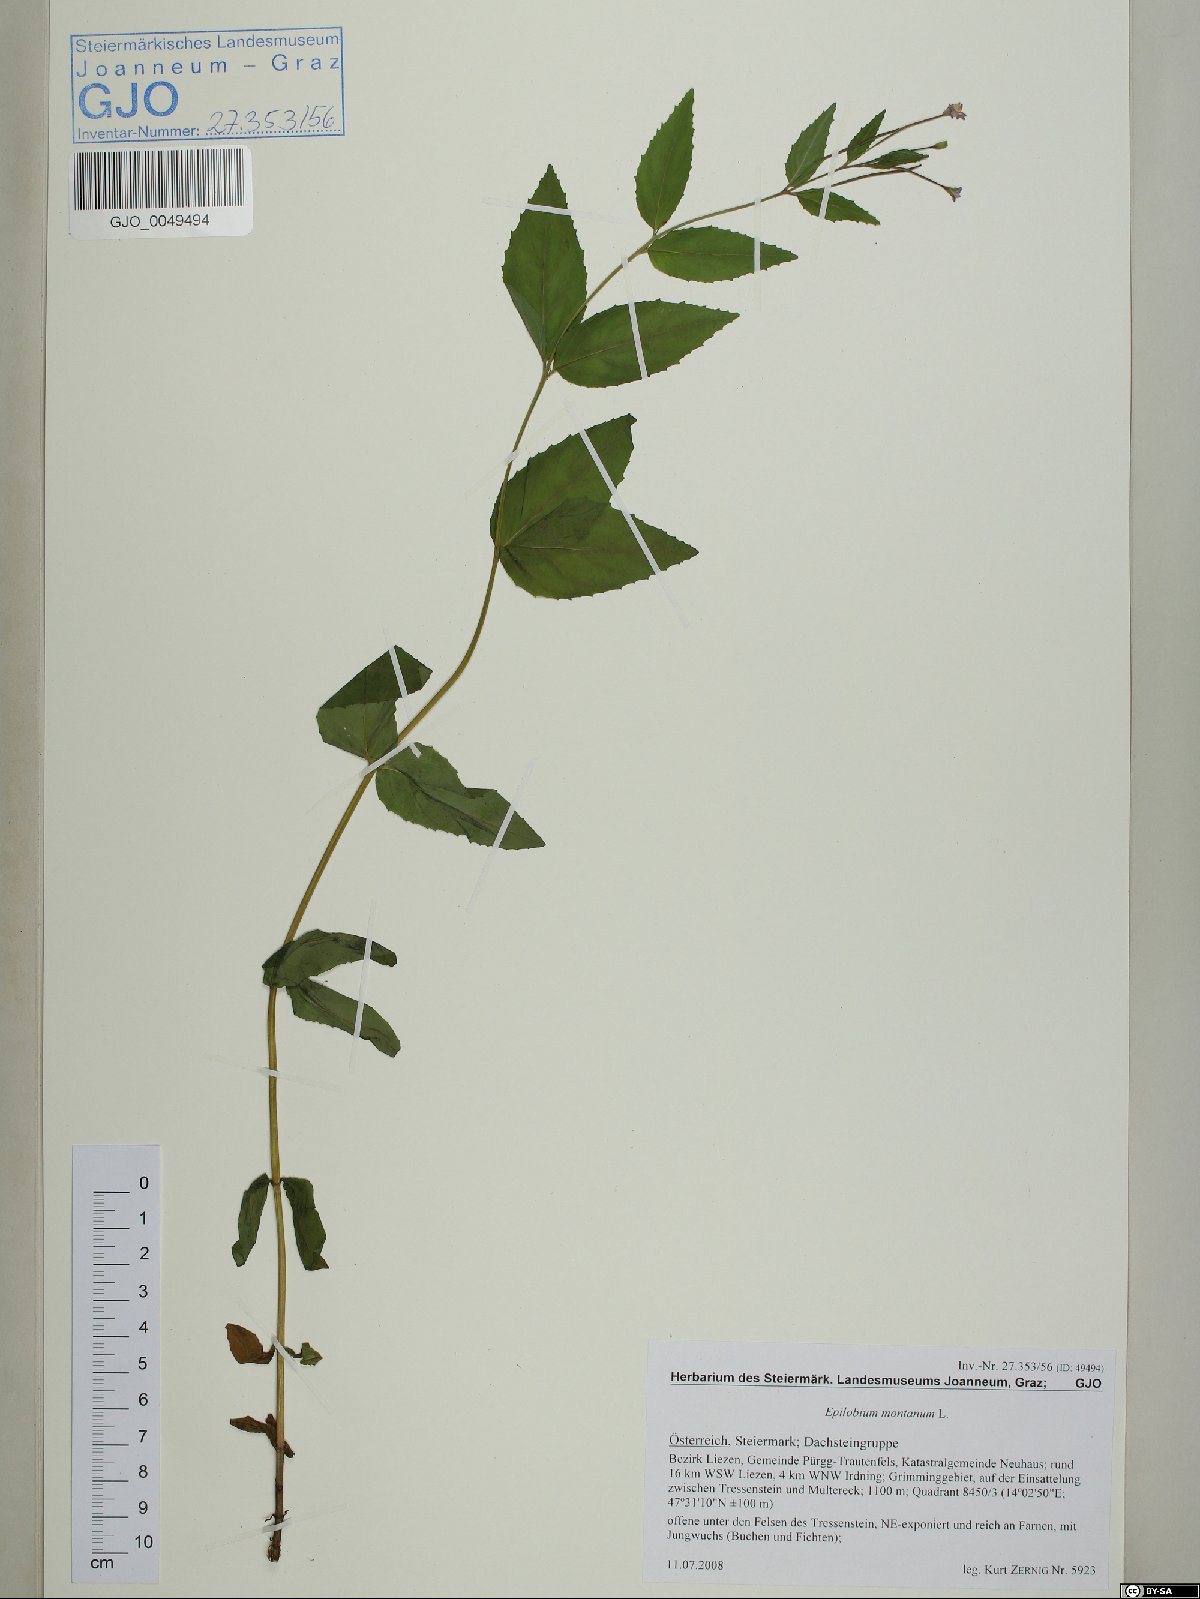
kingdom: Plantae
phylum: Tracheophyta
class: Magnoliopsida
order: Myrtales
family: Onagraceae
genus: Epilobium
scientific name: Epilobium montanum
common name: Broad-leaved willowherb
